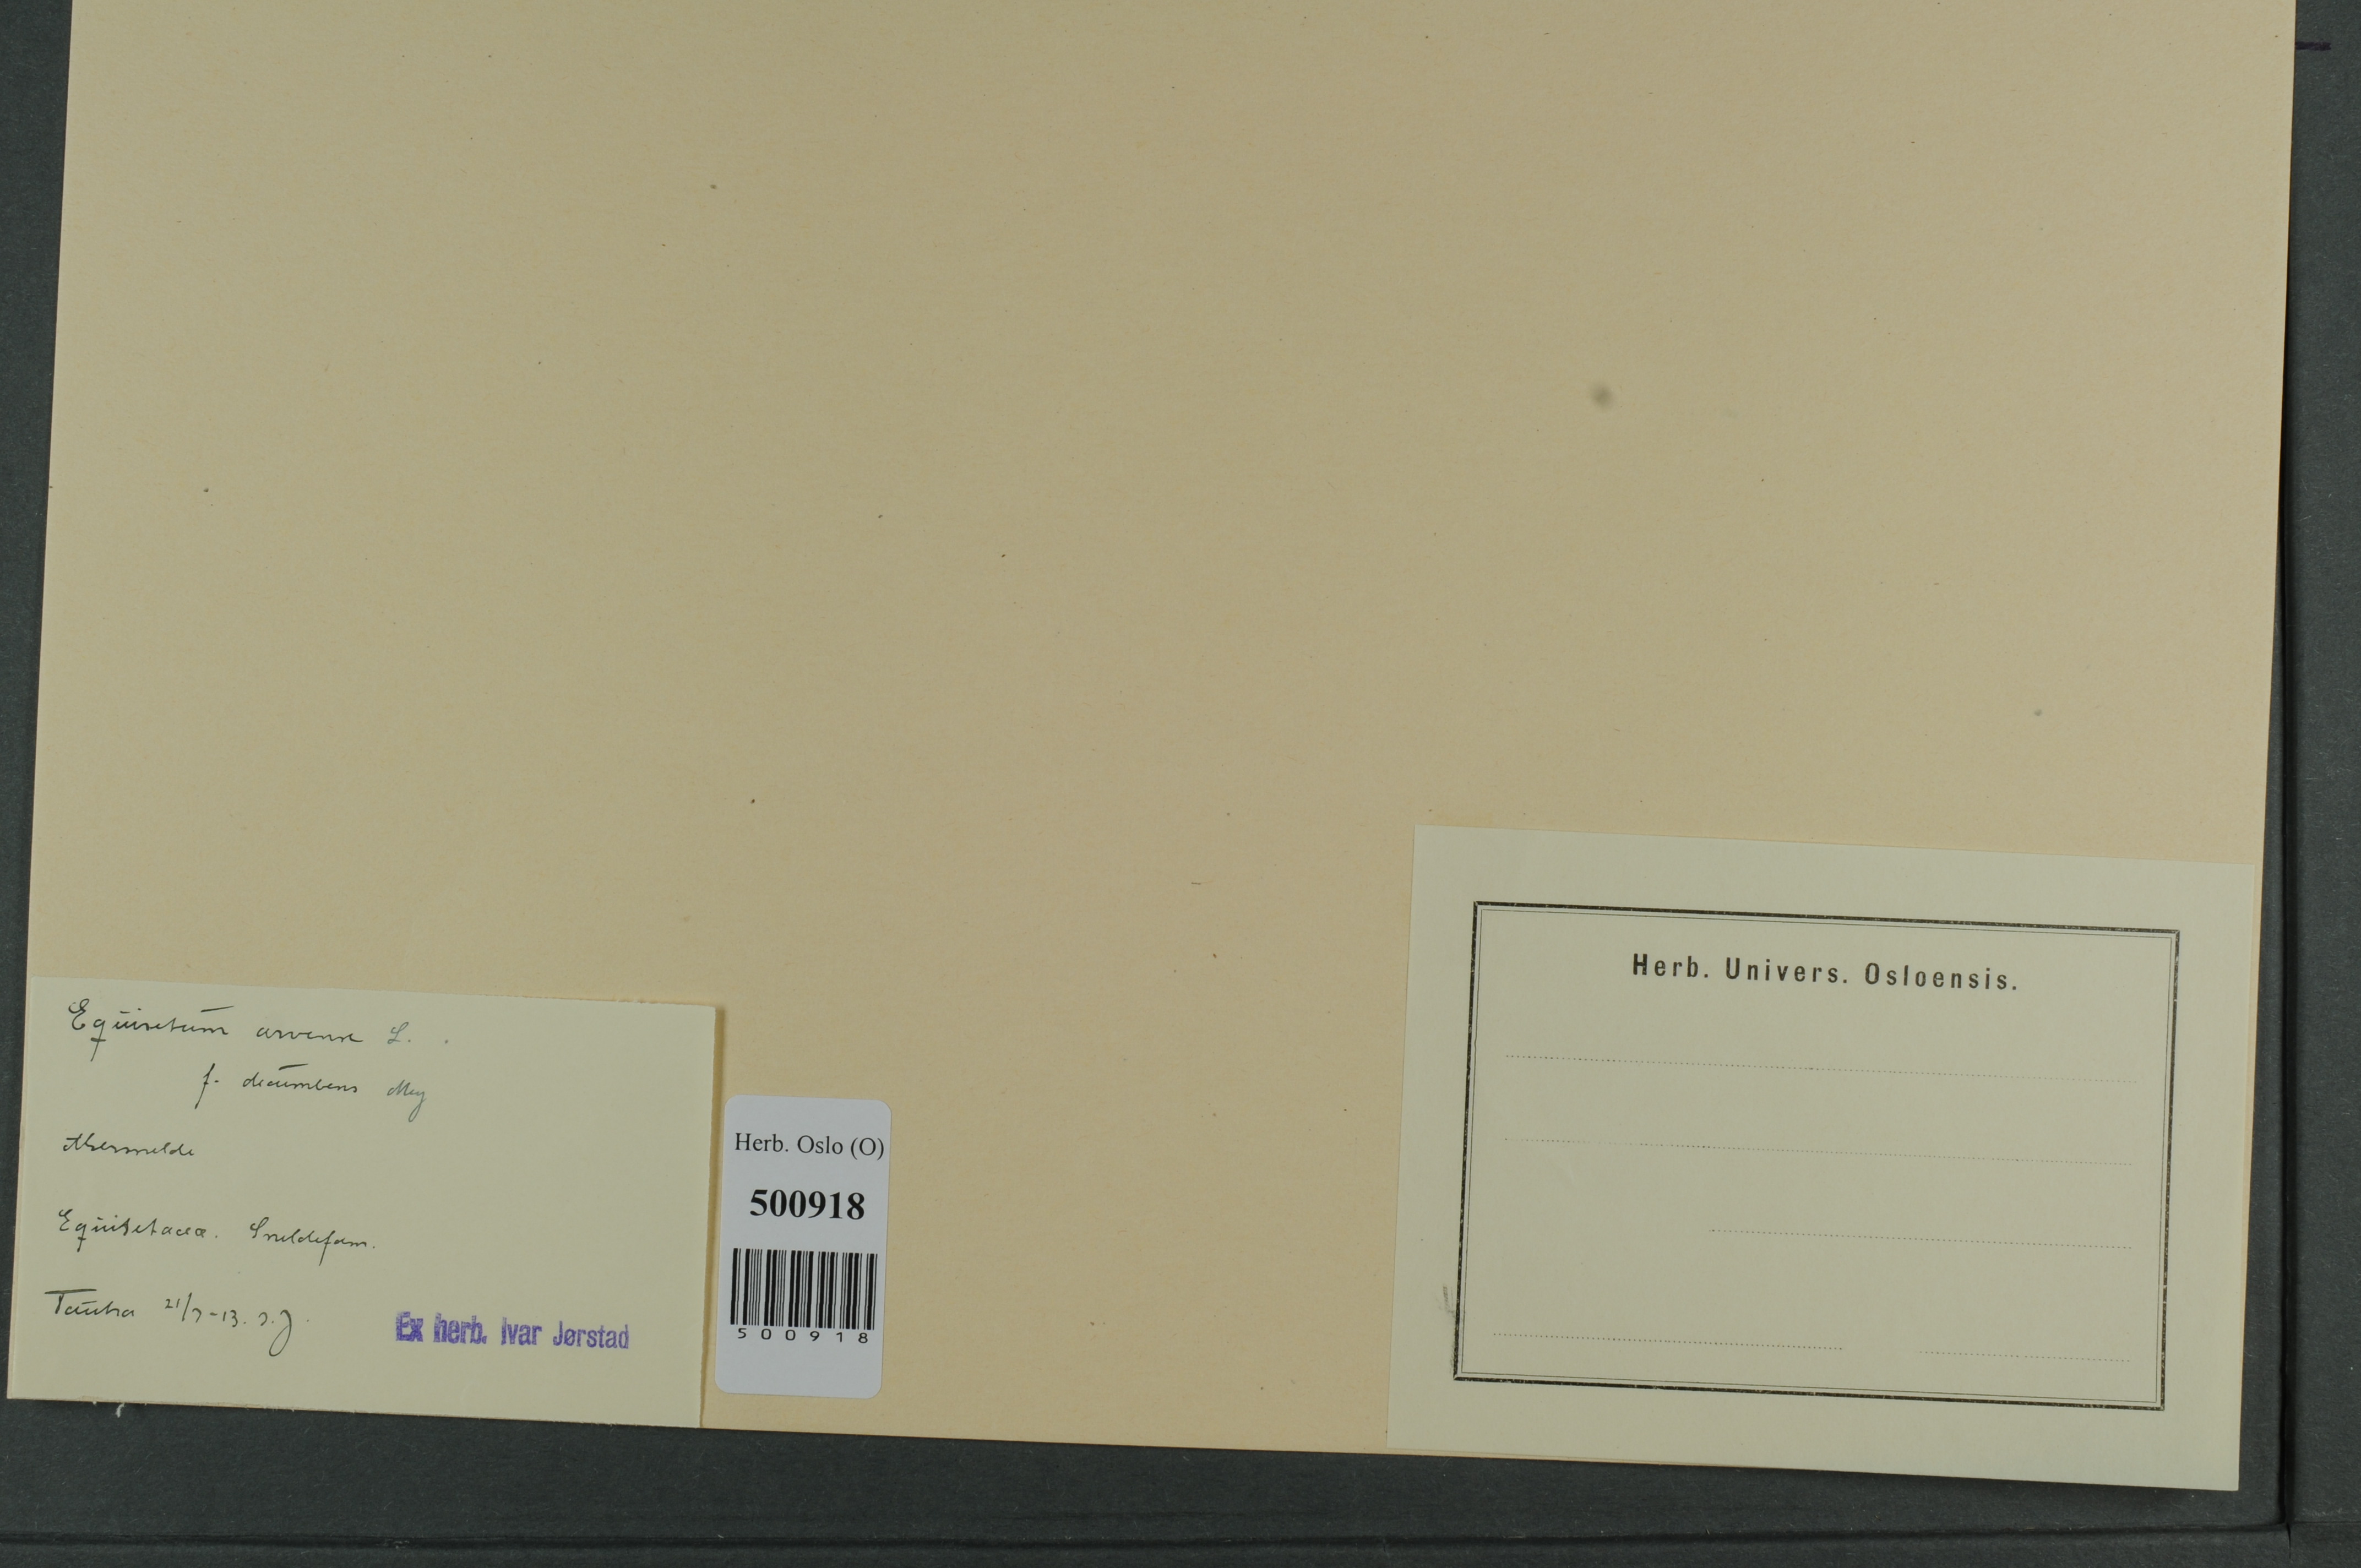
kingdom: Plantae
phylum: Tracheophyta
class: Polypodiopsida
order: Equisetales
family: Equisetaceae
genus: Equisetum
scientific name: Equisetum arvense
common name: Field horsetail
